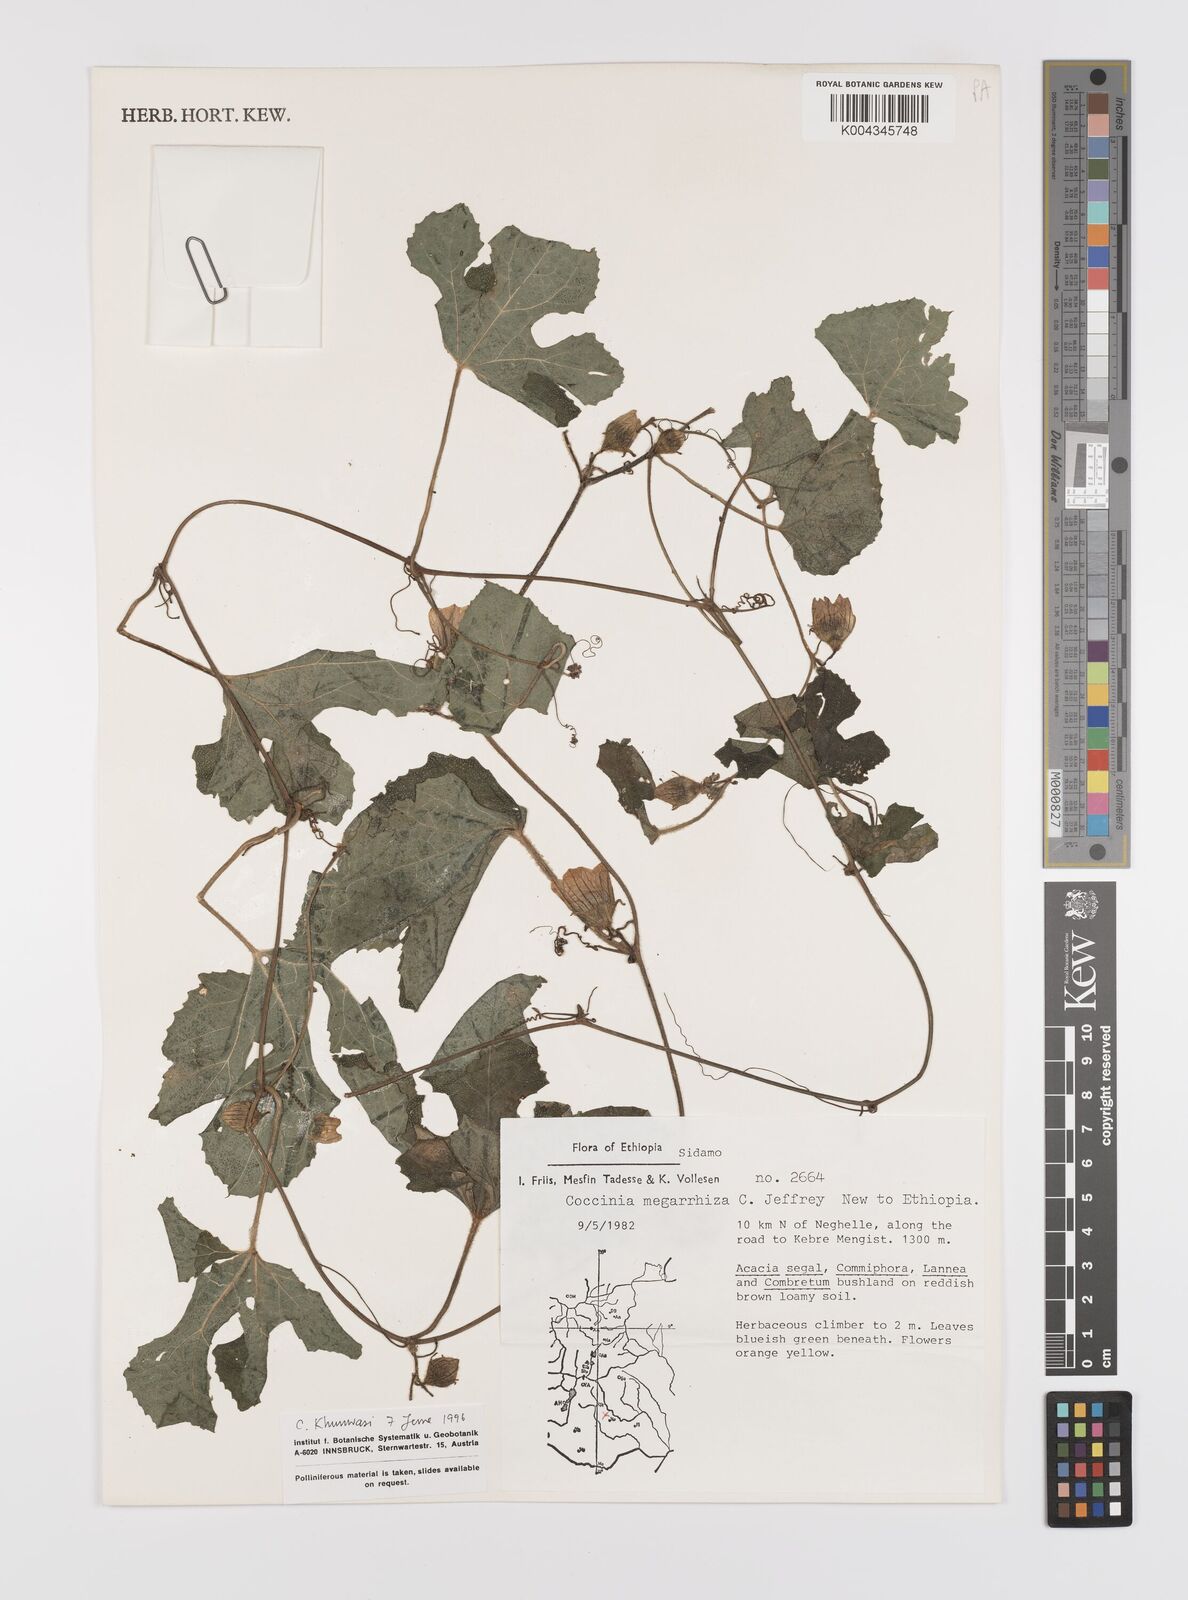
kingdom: Plantae
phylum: Tracheophyta
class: Magnoliopsida
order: Cucurbitales
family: Cucurbitaceae
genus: Coccinia
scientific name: Coccinia megarrhiza
